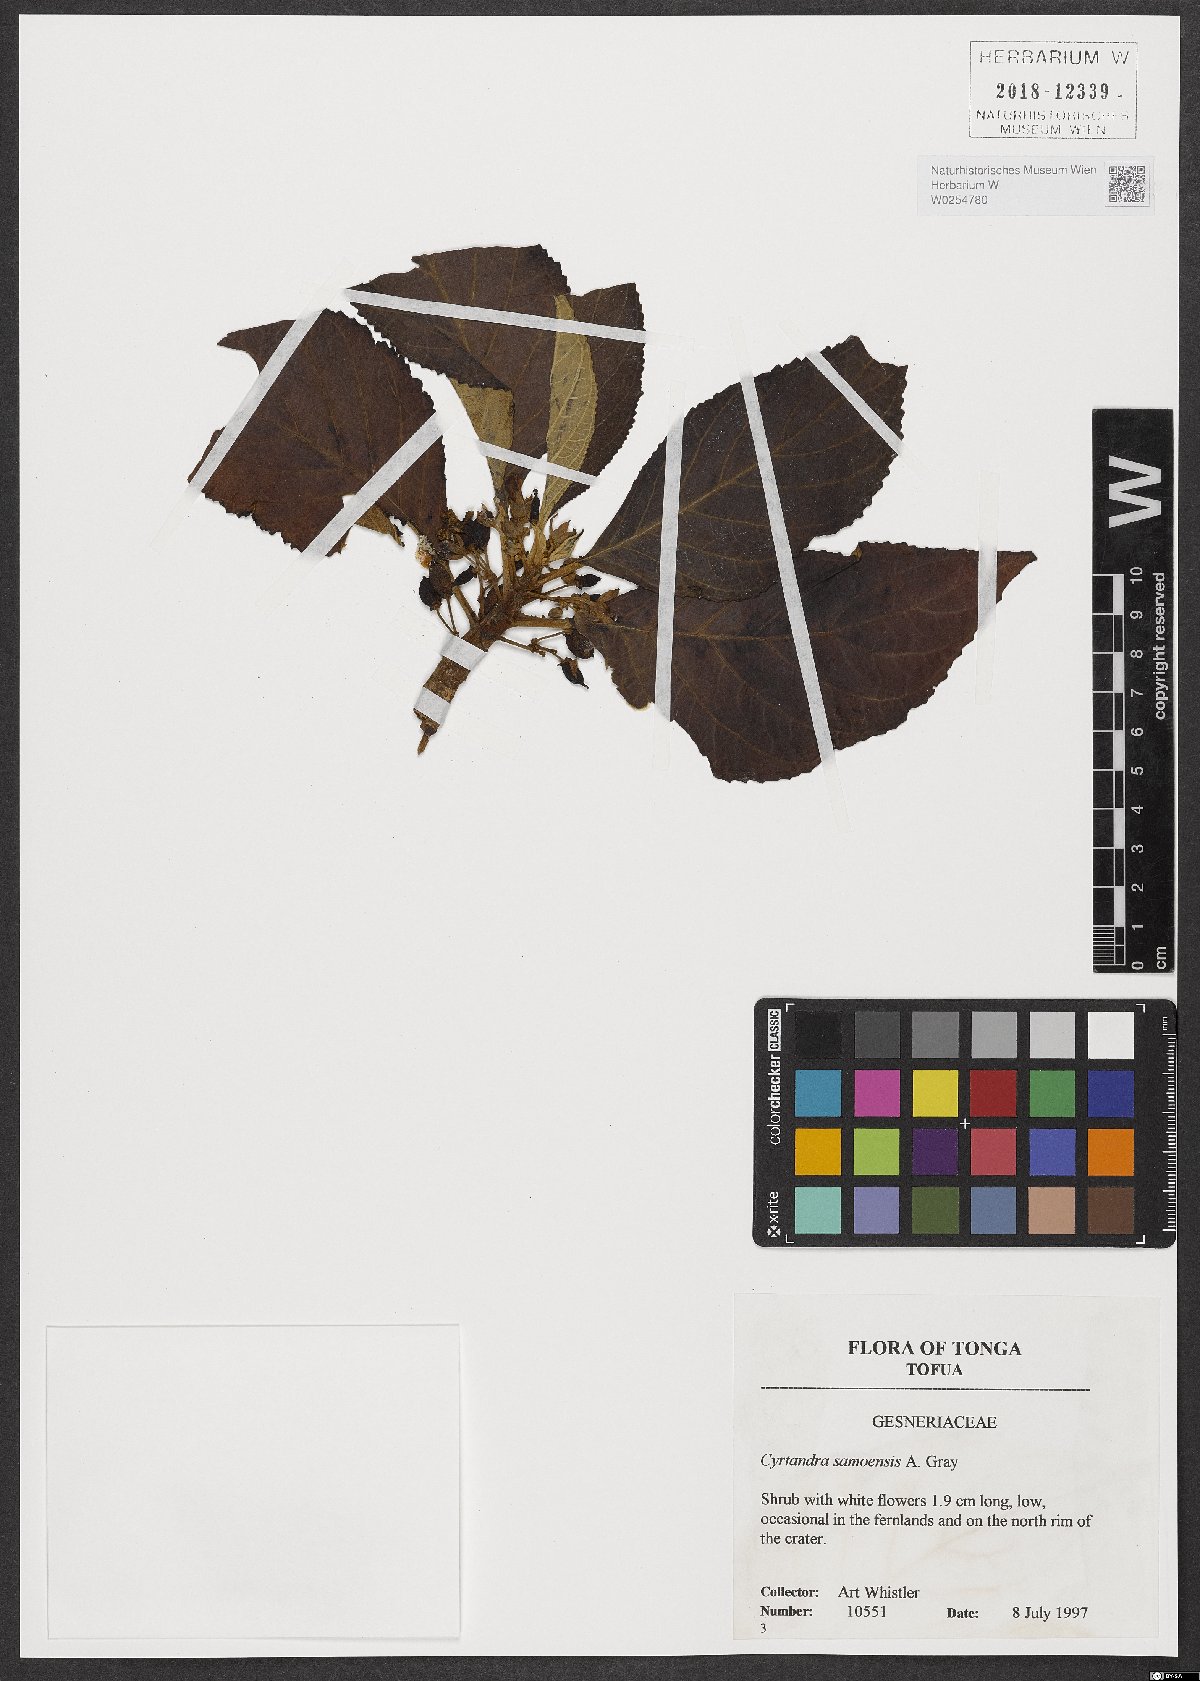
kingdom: Plantae
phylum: Tracheophyta
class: Magnoliopsida
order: Lamiales
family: Gesneriaceae
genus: Cyrtandra
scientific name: Cyrtandra samoensis
